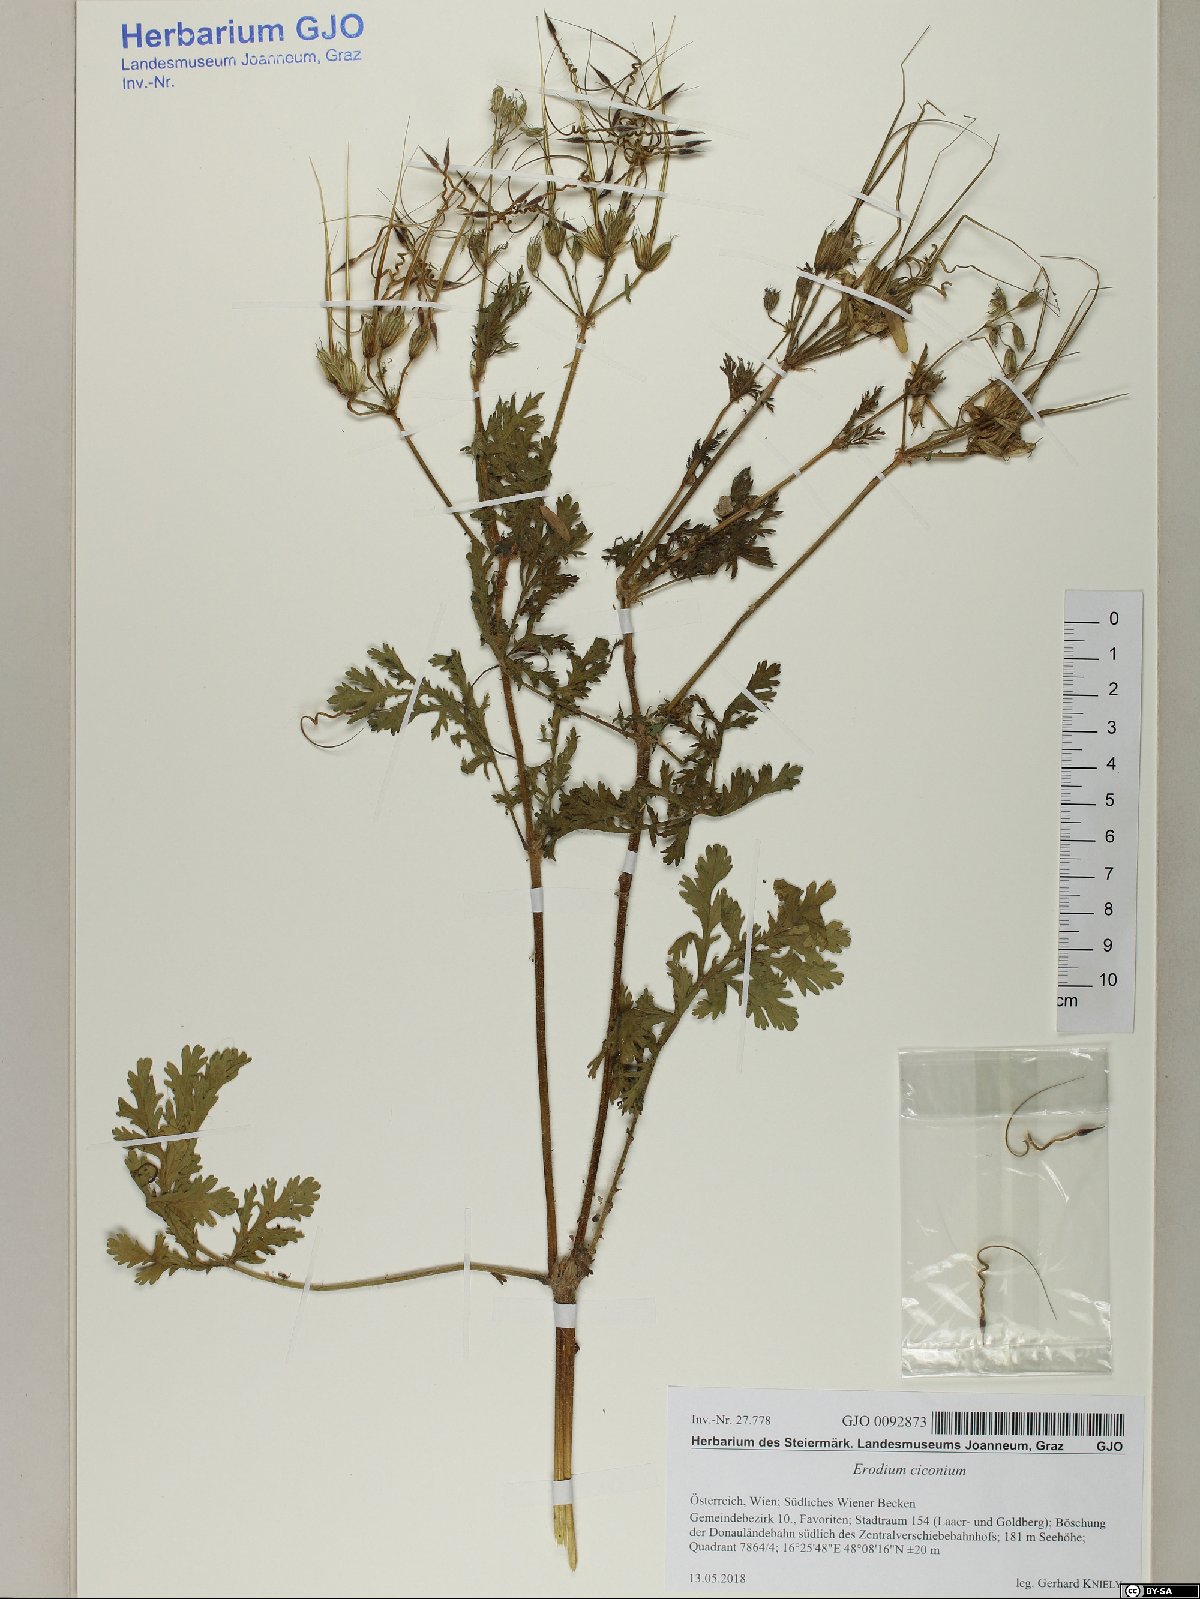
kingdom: Plantae
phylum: Tracheophyta
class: Magnoliopsida
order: Geraniales
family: Geraniaceae
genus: Erodium
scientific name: Erodium ciconium
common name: Common stork's bill
